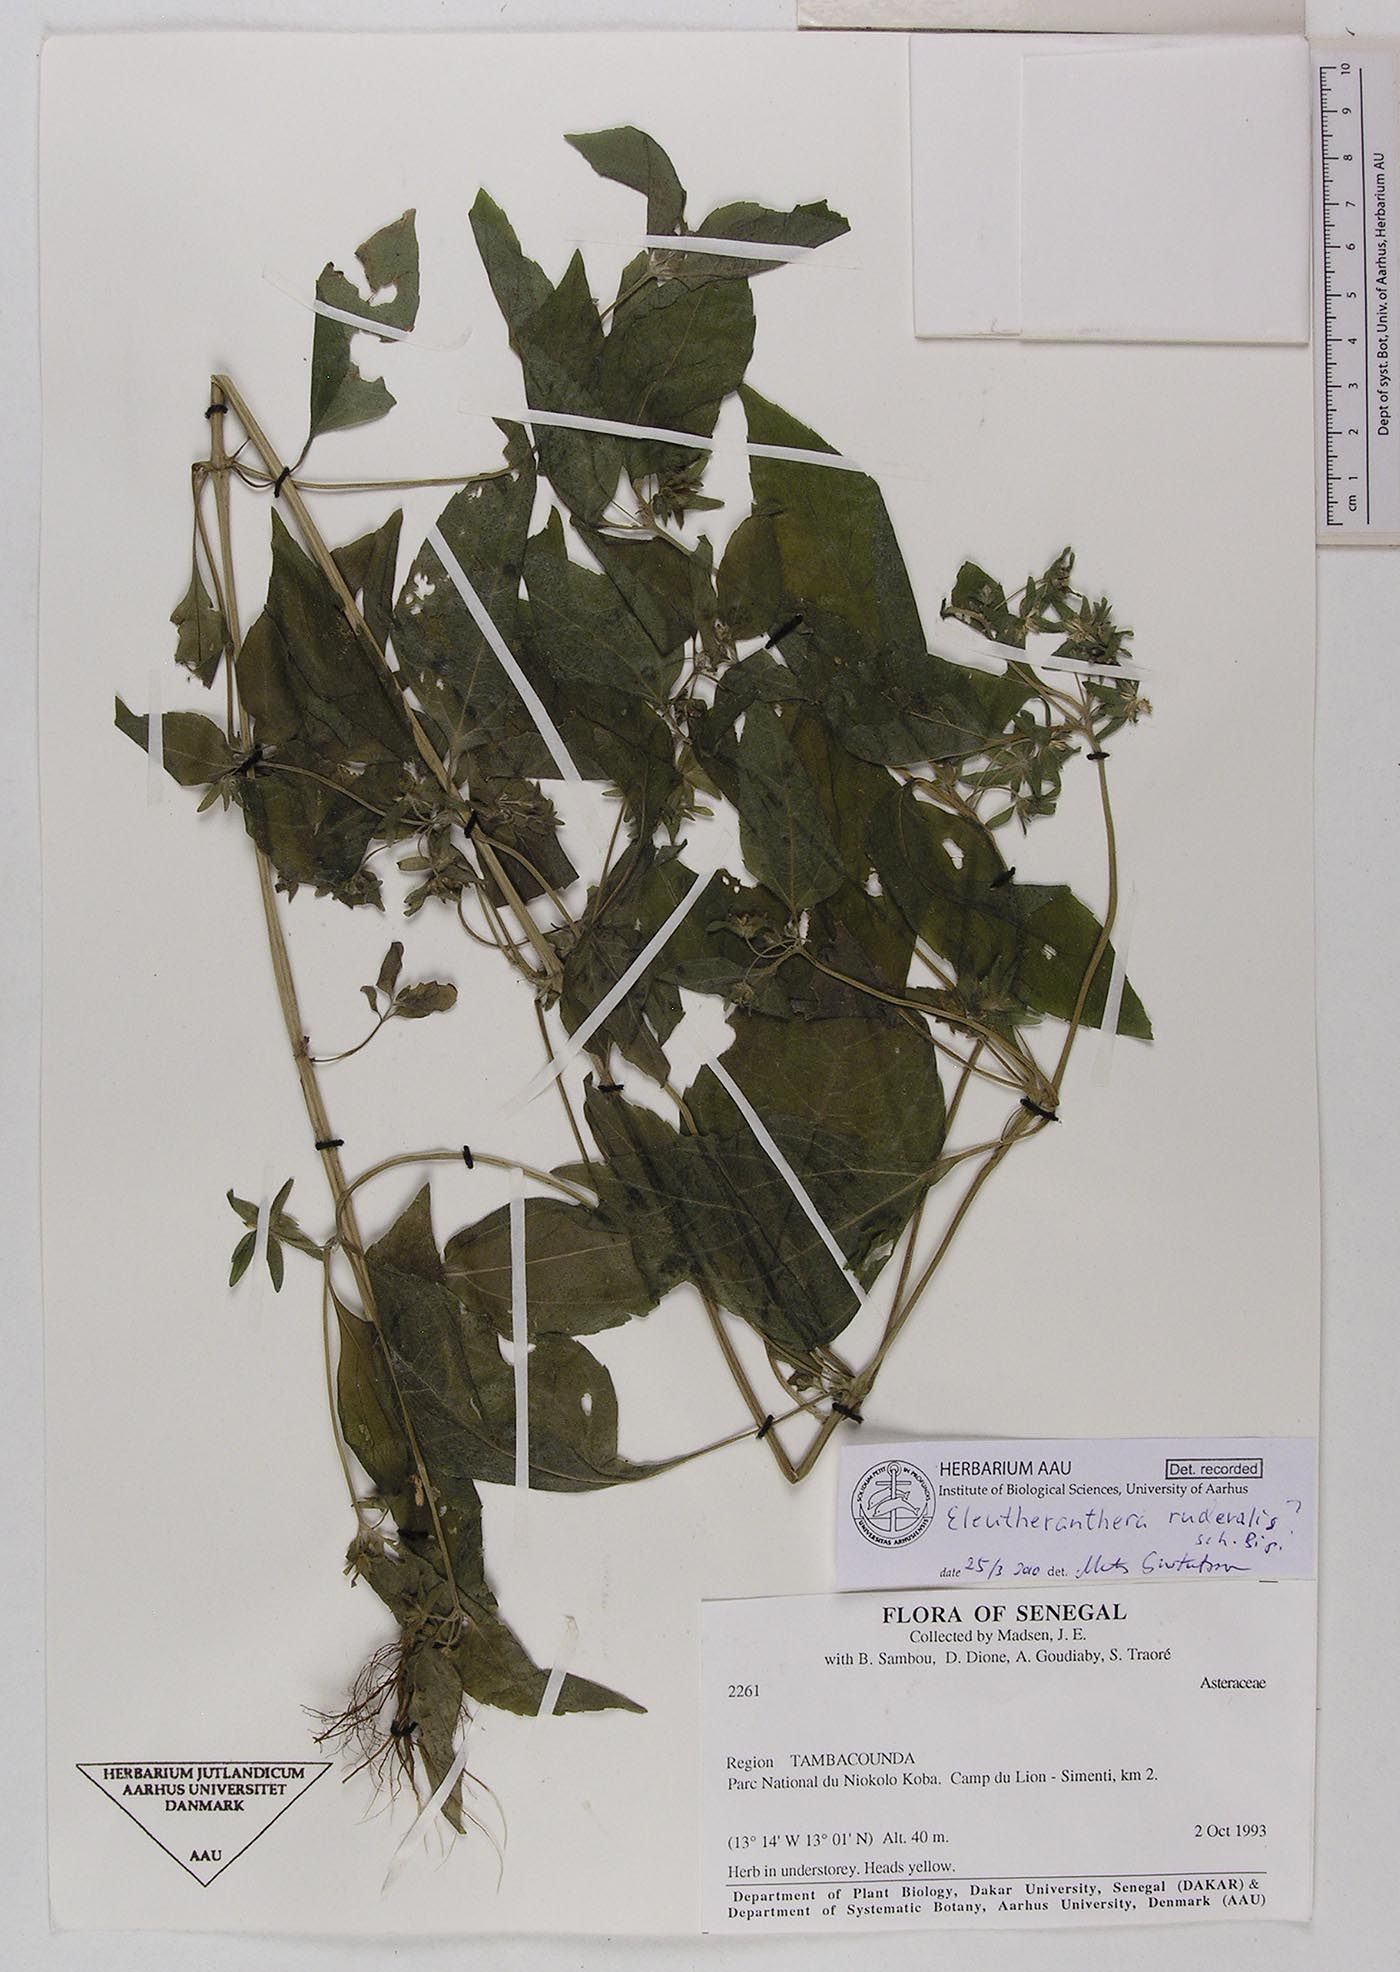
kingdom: Plantae
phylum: Tracheophyta
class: Magnoliopsida
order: Asterales
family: Asteraceae
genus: Eleutheranthera
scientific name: Eleutheranthera ruderalis
